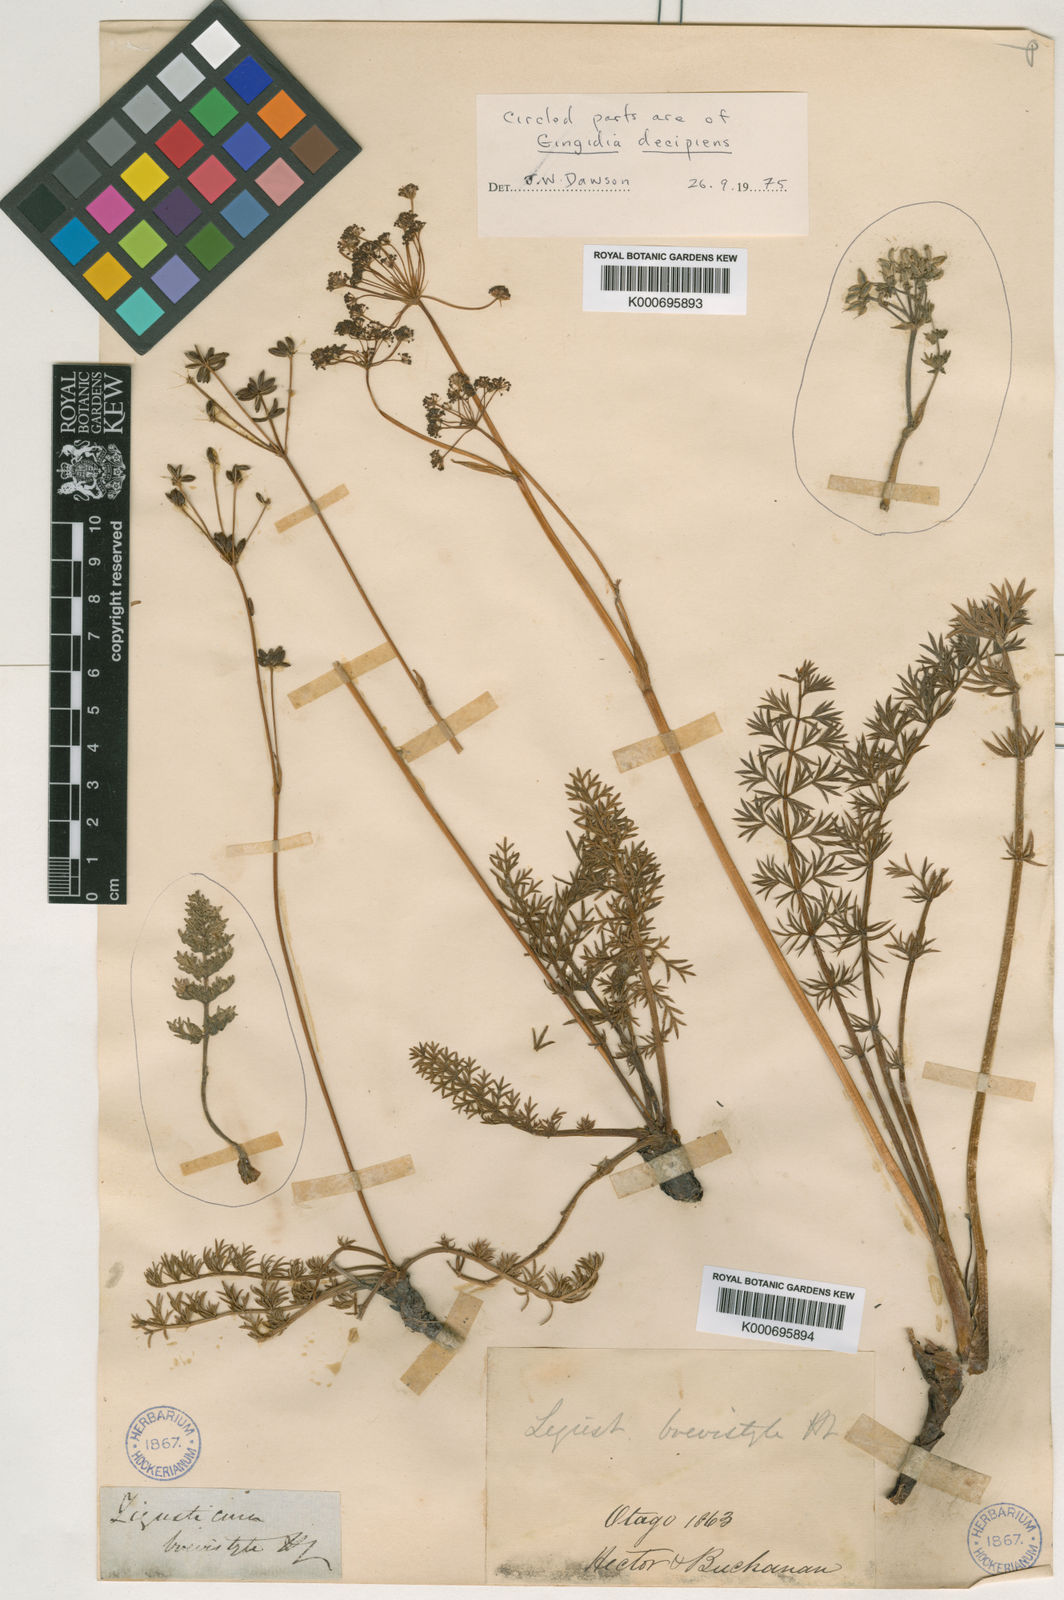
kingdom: Plantae
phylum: Tracheophyta
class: Magnoliopsida
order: Apiales
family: Apiaceae
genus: Anisotome
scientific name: Anisotome
